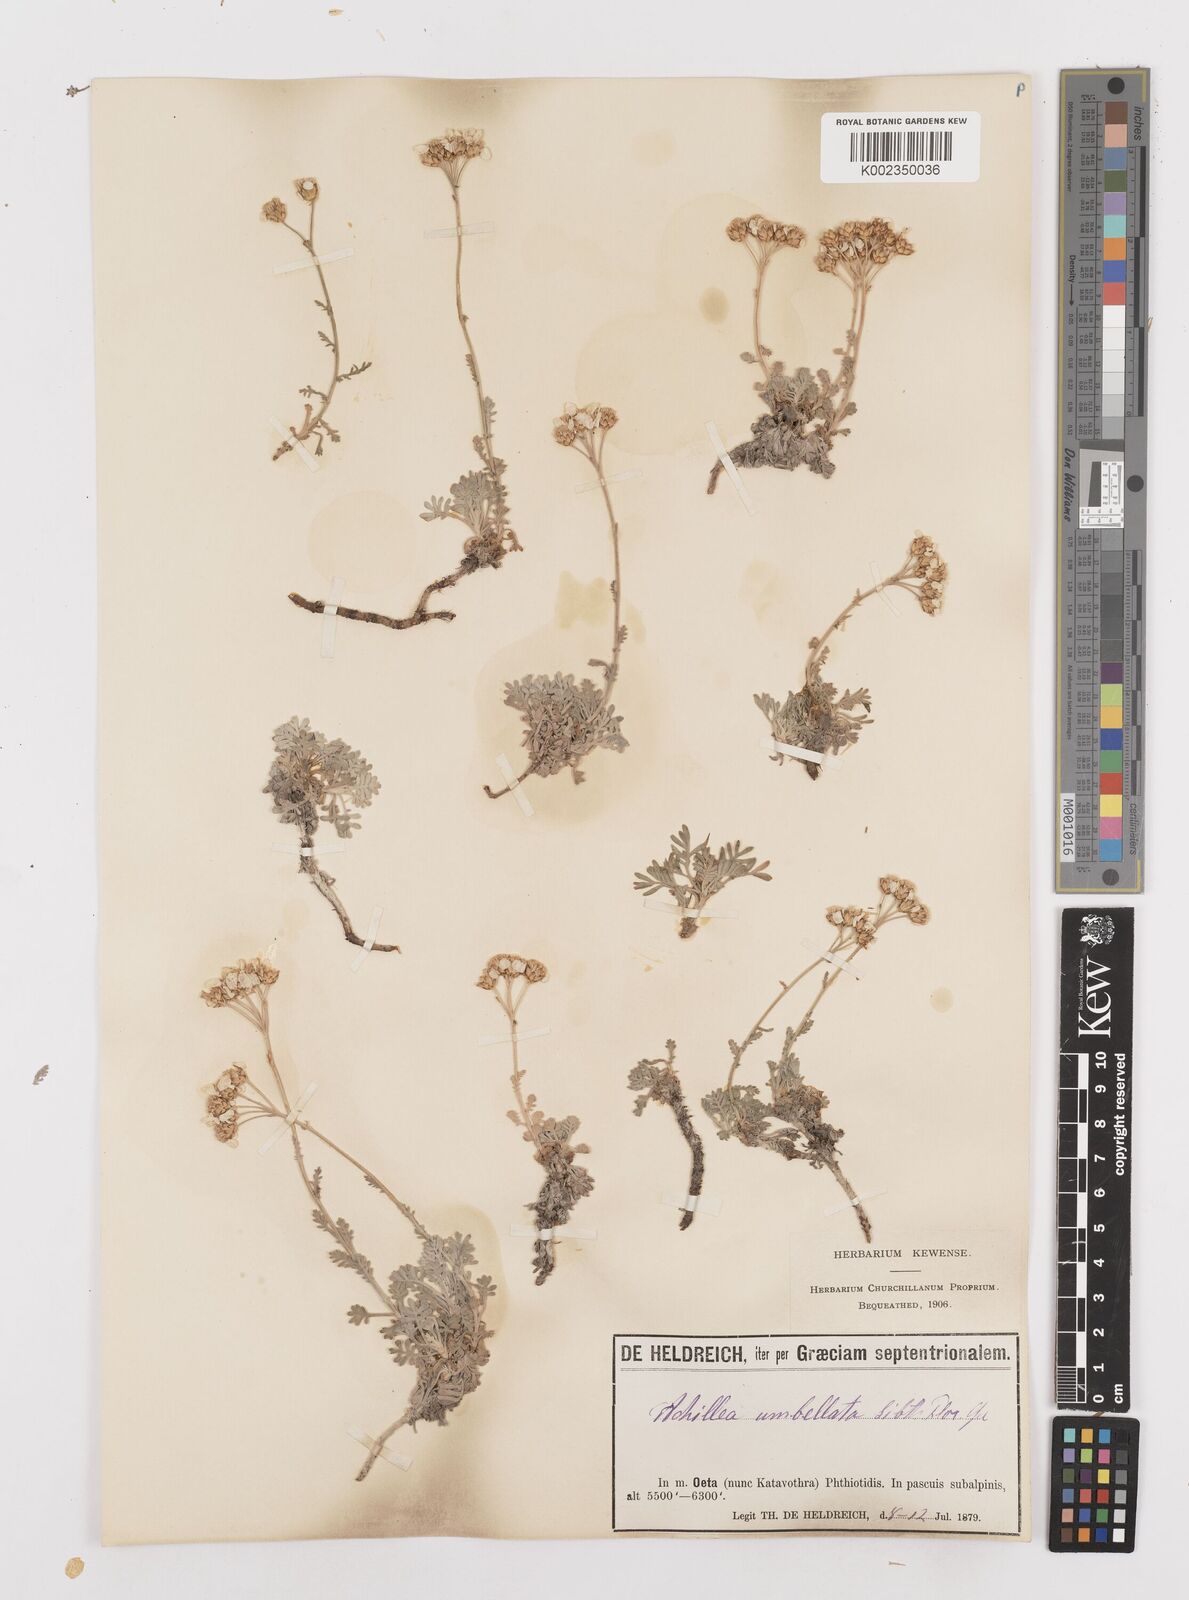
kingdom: Plantae
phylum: Tracheophyta
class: Magnoliopsida
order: Asterales
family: Asteraceae
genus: Achillea
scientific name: Achillea umbellata
